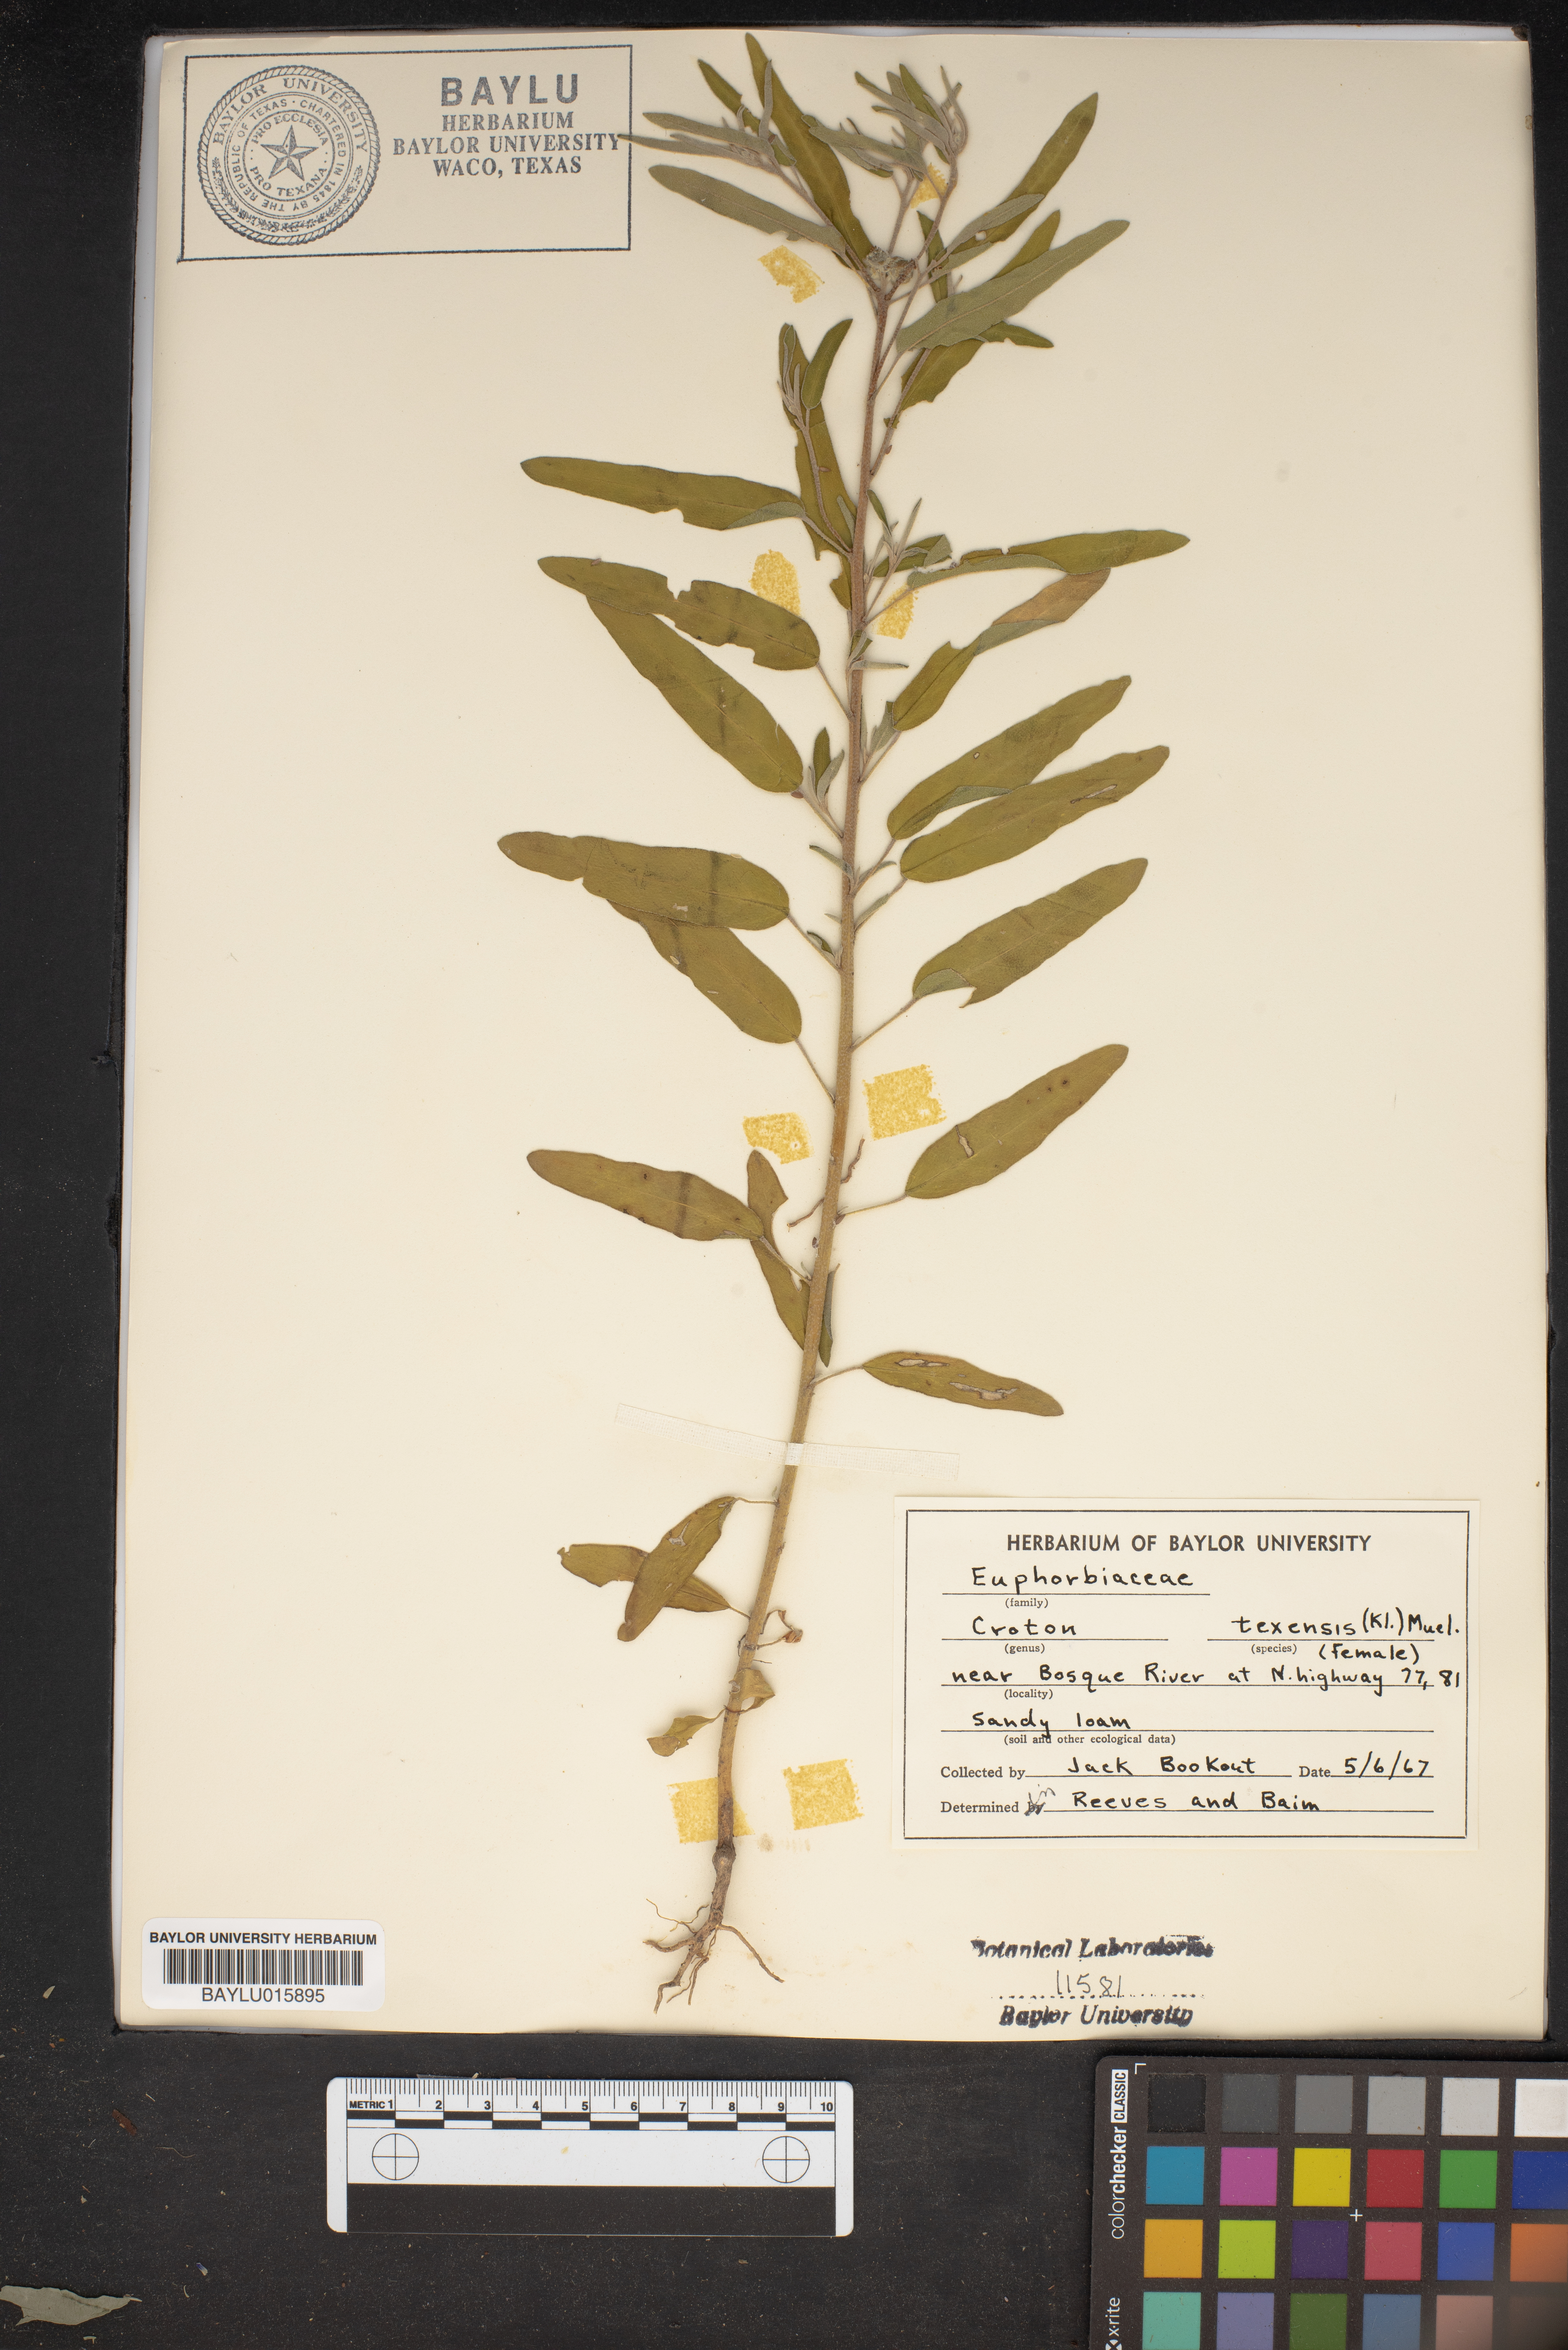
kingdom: Plantae
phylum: Tracheophyta
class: Magnoliopsida
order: Malpighiales
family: Euphorbiaceae
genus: Croton
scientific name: Croton texensis
